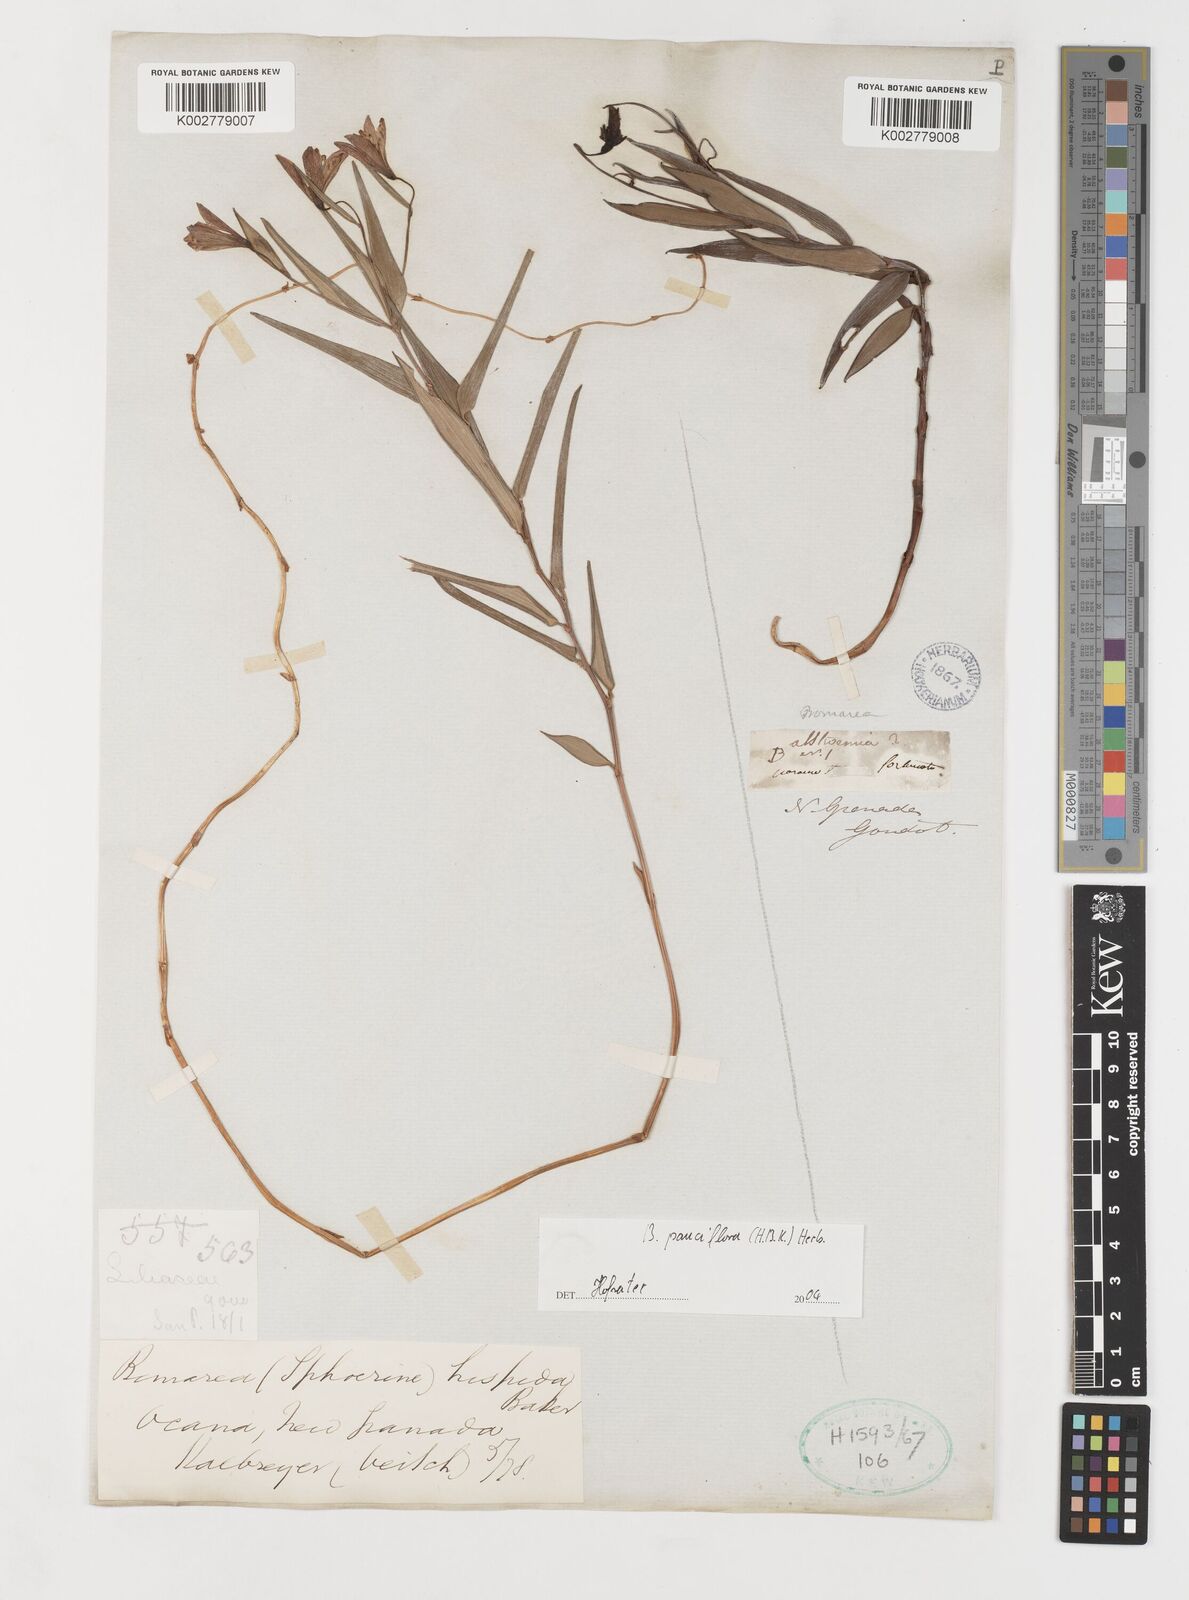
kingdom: Plantae
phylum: Tracheophyta
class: Liliopsida
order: Liliales
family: Alstroemeriaceae
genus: Bomarea
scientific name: Bomarea pauciflora
